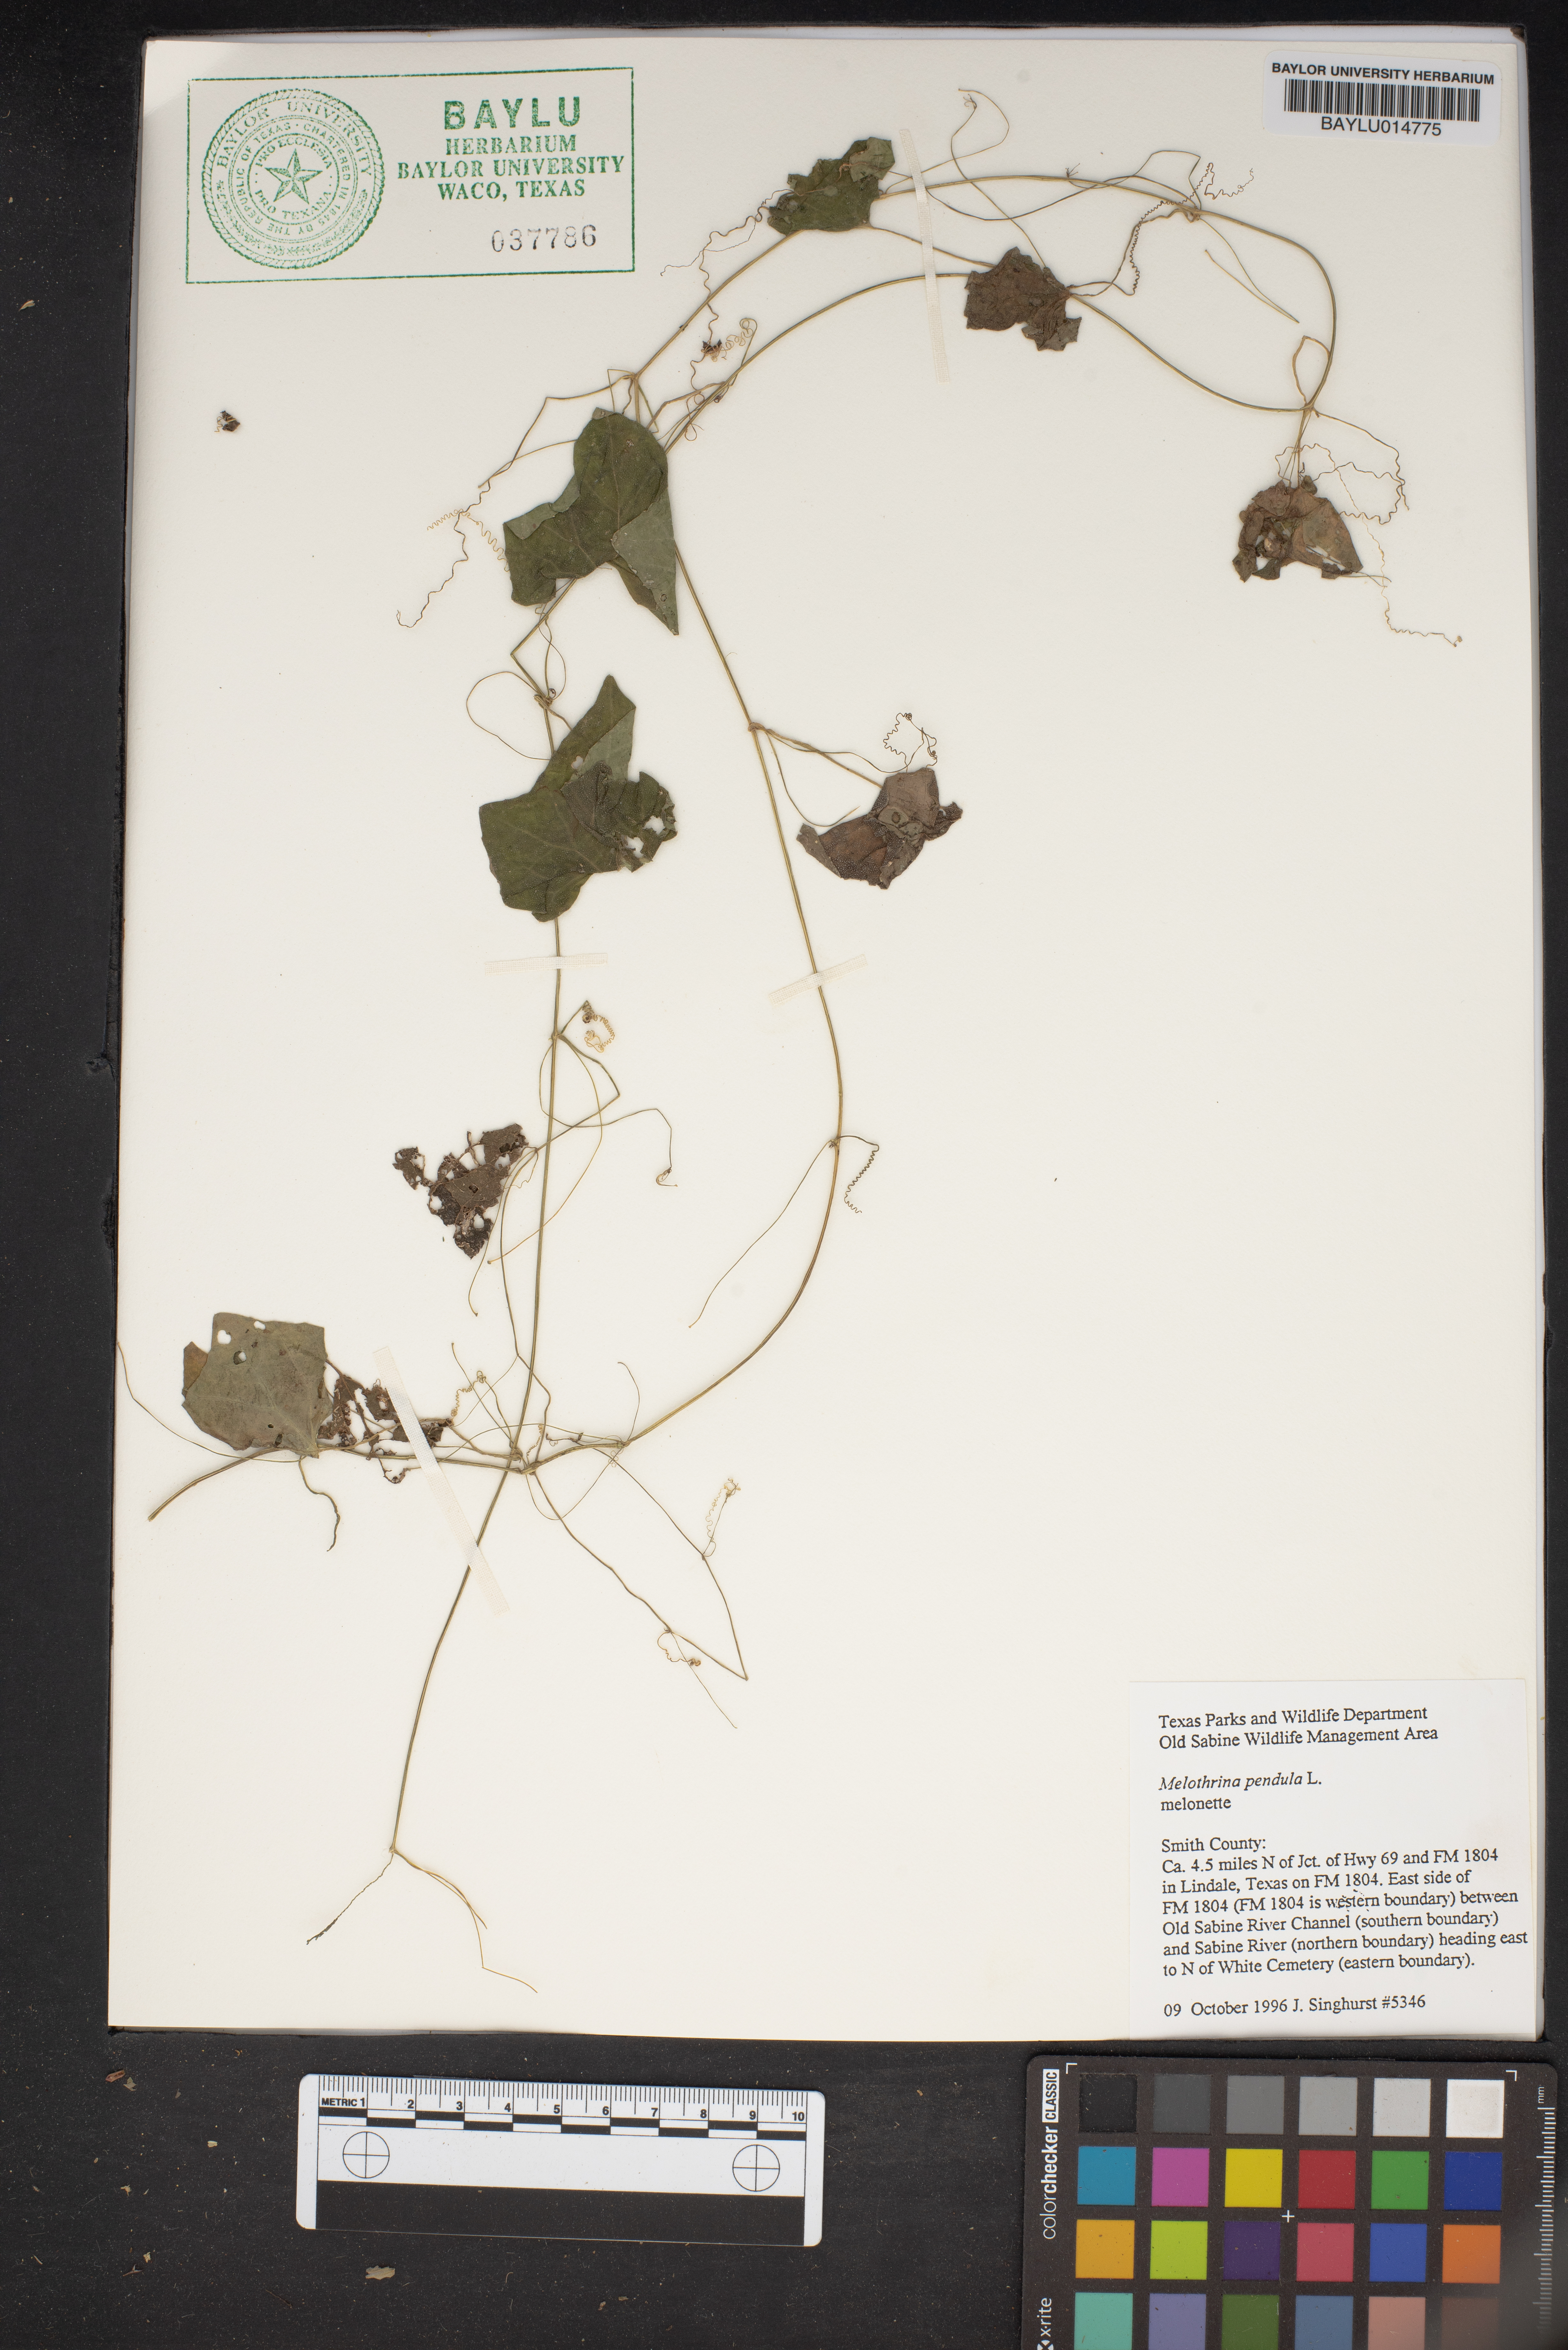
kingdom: Plantae
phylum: Tracheophyta
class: Magnoliopsida
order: Cucurbitales
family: Cucurbitaceae
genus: Melothria
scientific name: Melothria pendula
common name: Creeping-cucumber
